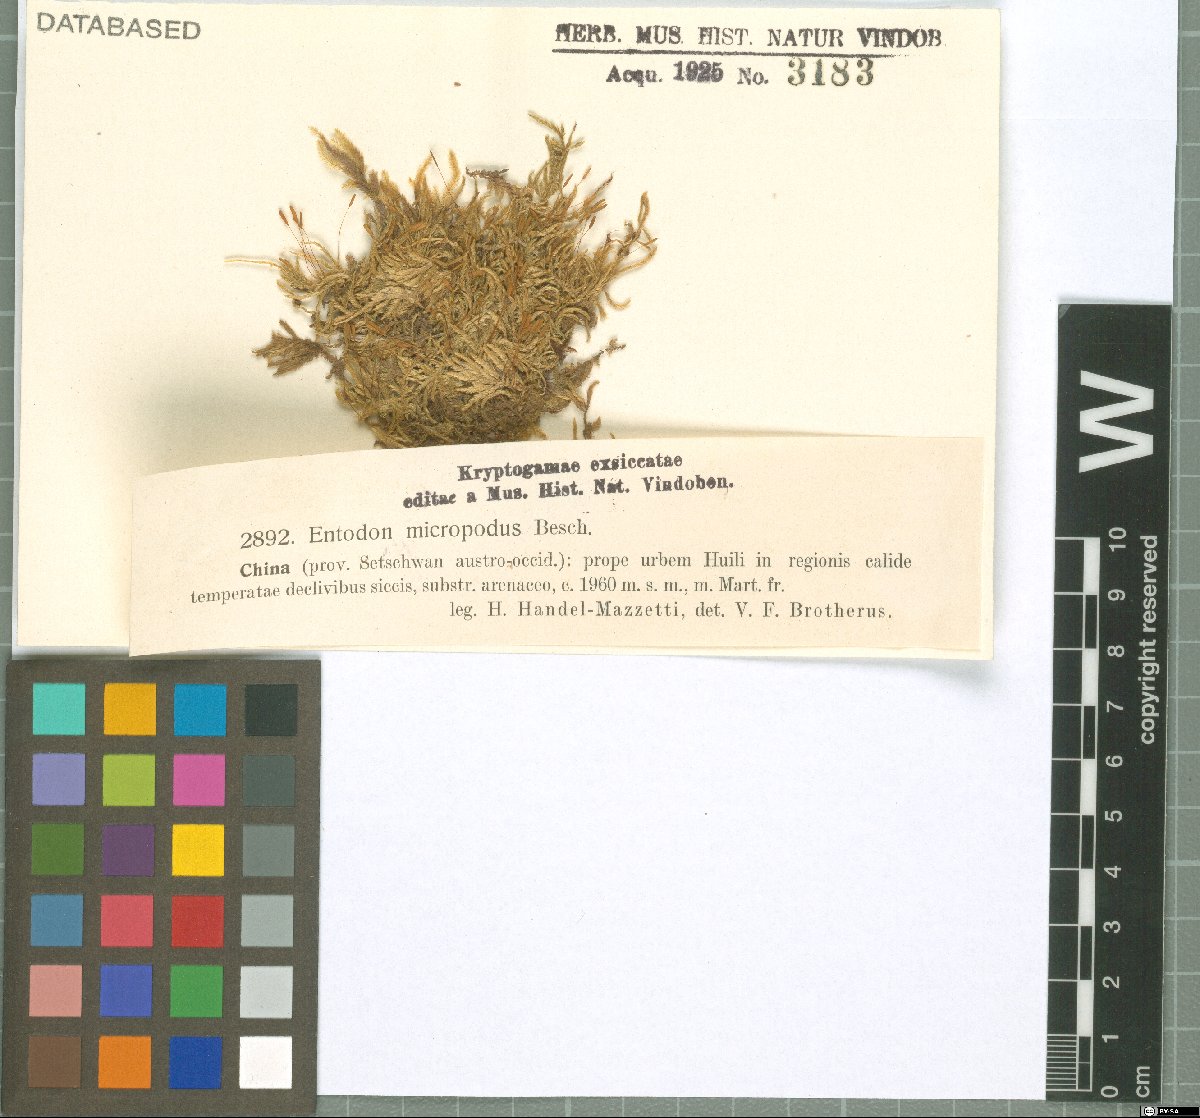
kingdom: Plantae
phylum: Bryophyta
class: Bryopsida
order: Hypnales
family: Entodontaceae
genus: Entodon
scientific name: Entodon prorepens
